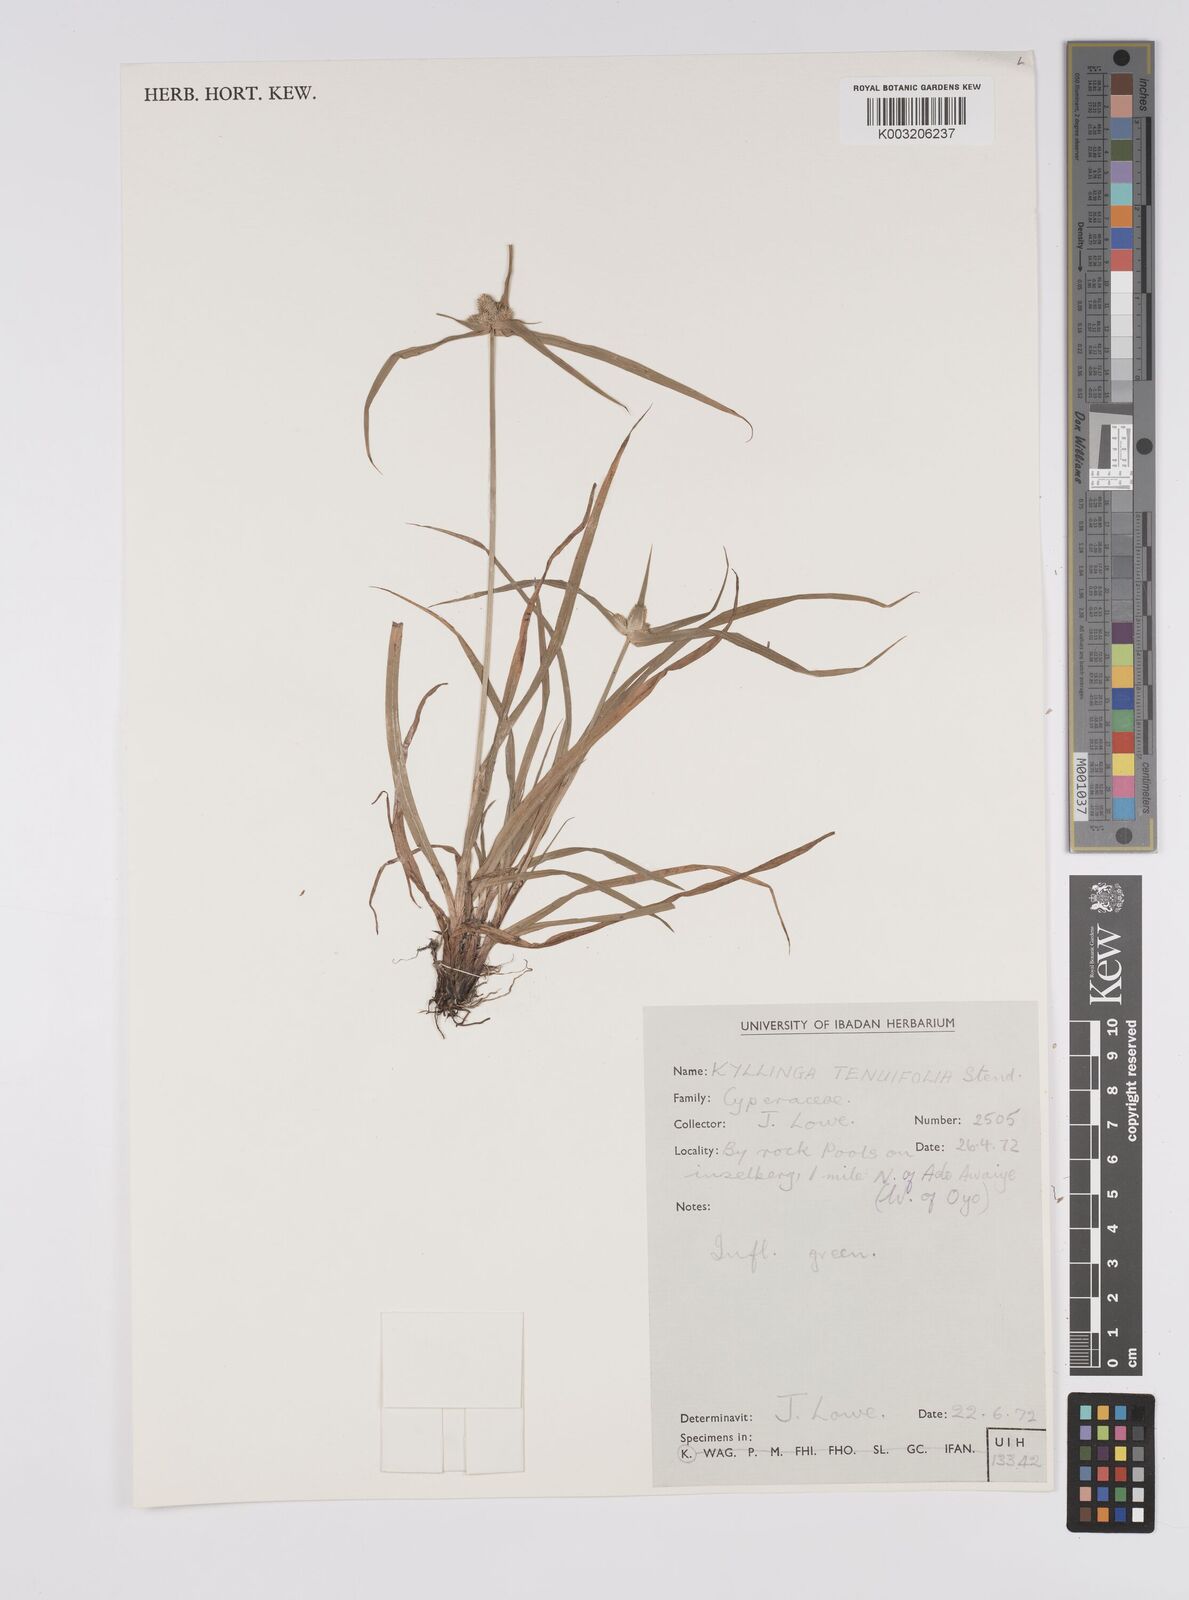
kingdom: Plantae
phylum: Tracheophyta
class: Liliopsida
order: Poales
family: Cyperaceae
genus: Cyperus
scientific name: Cyperus
